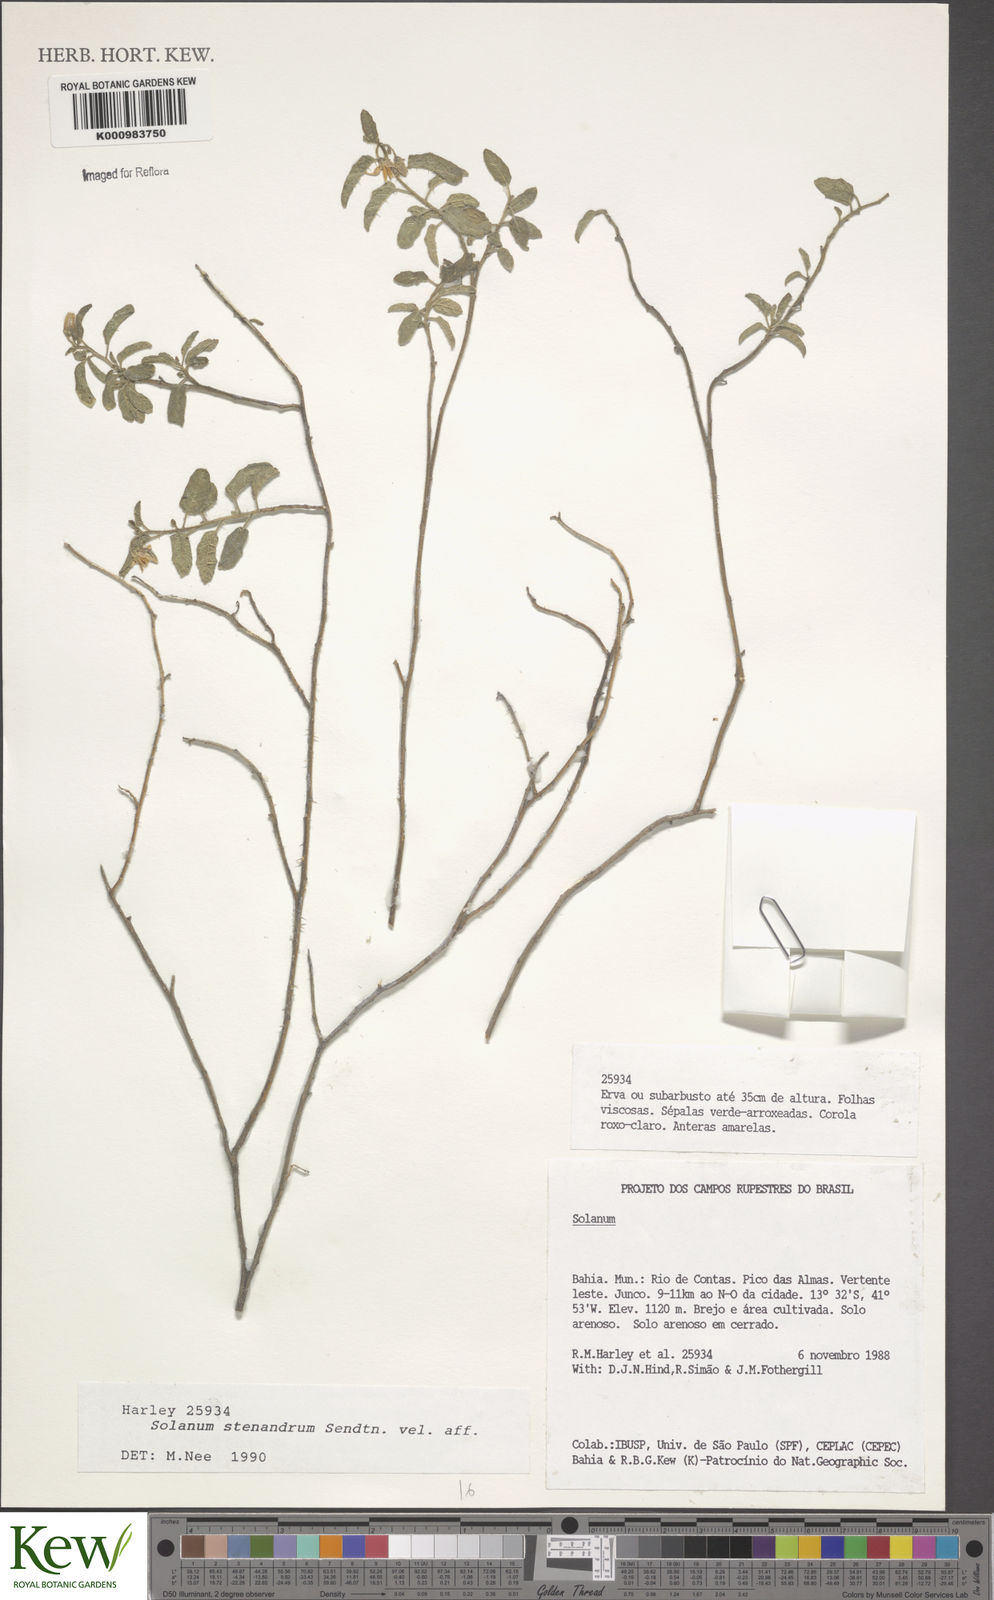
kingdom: Plantae
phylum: Tracheophyta
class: Magnoliopsida
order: Solanales
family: Solanaceae
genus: Solanum
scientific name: Solanum stenandrum
